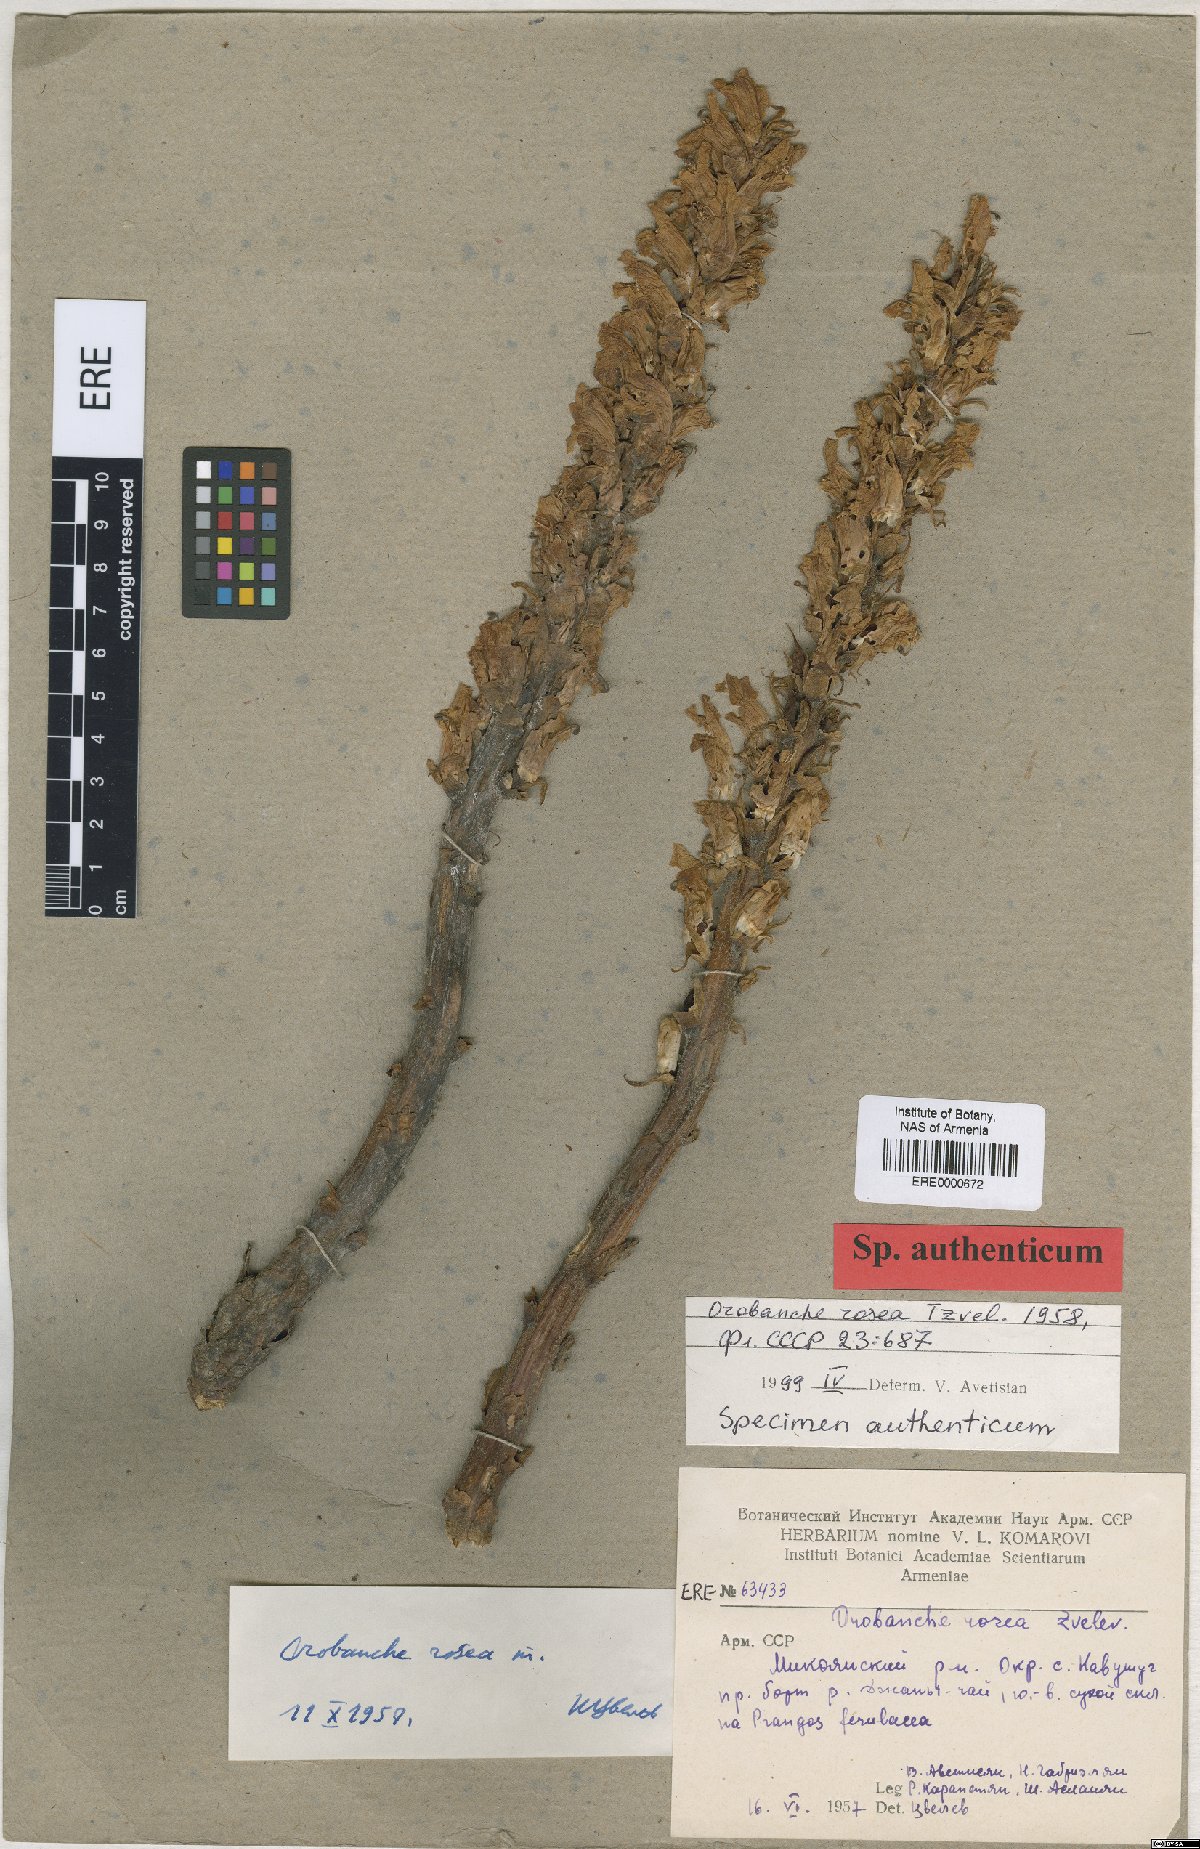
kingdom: Plantae
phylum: Tracheophyta
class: Magnoliopsida
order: Lamiales
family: Orobanchaceae
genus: Orobanche
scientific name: Orobanche elatior
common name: Knapweed broomrape
